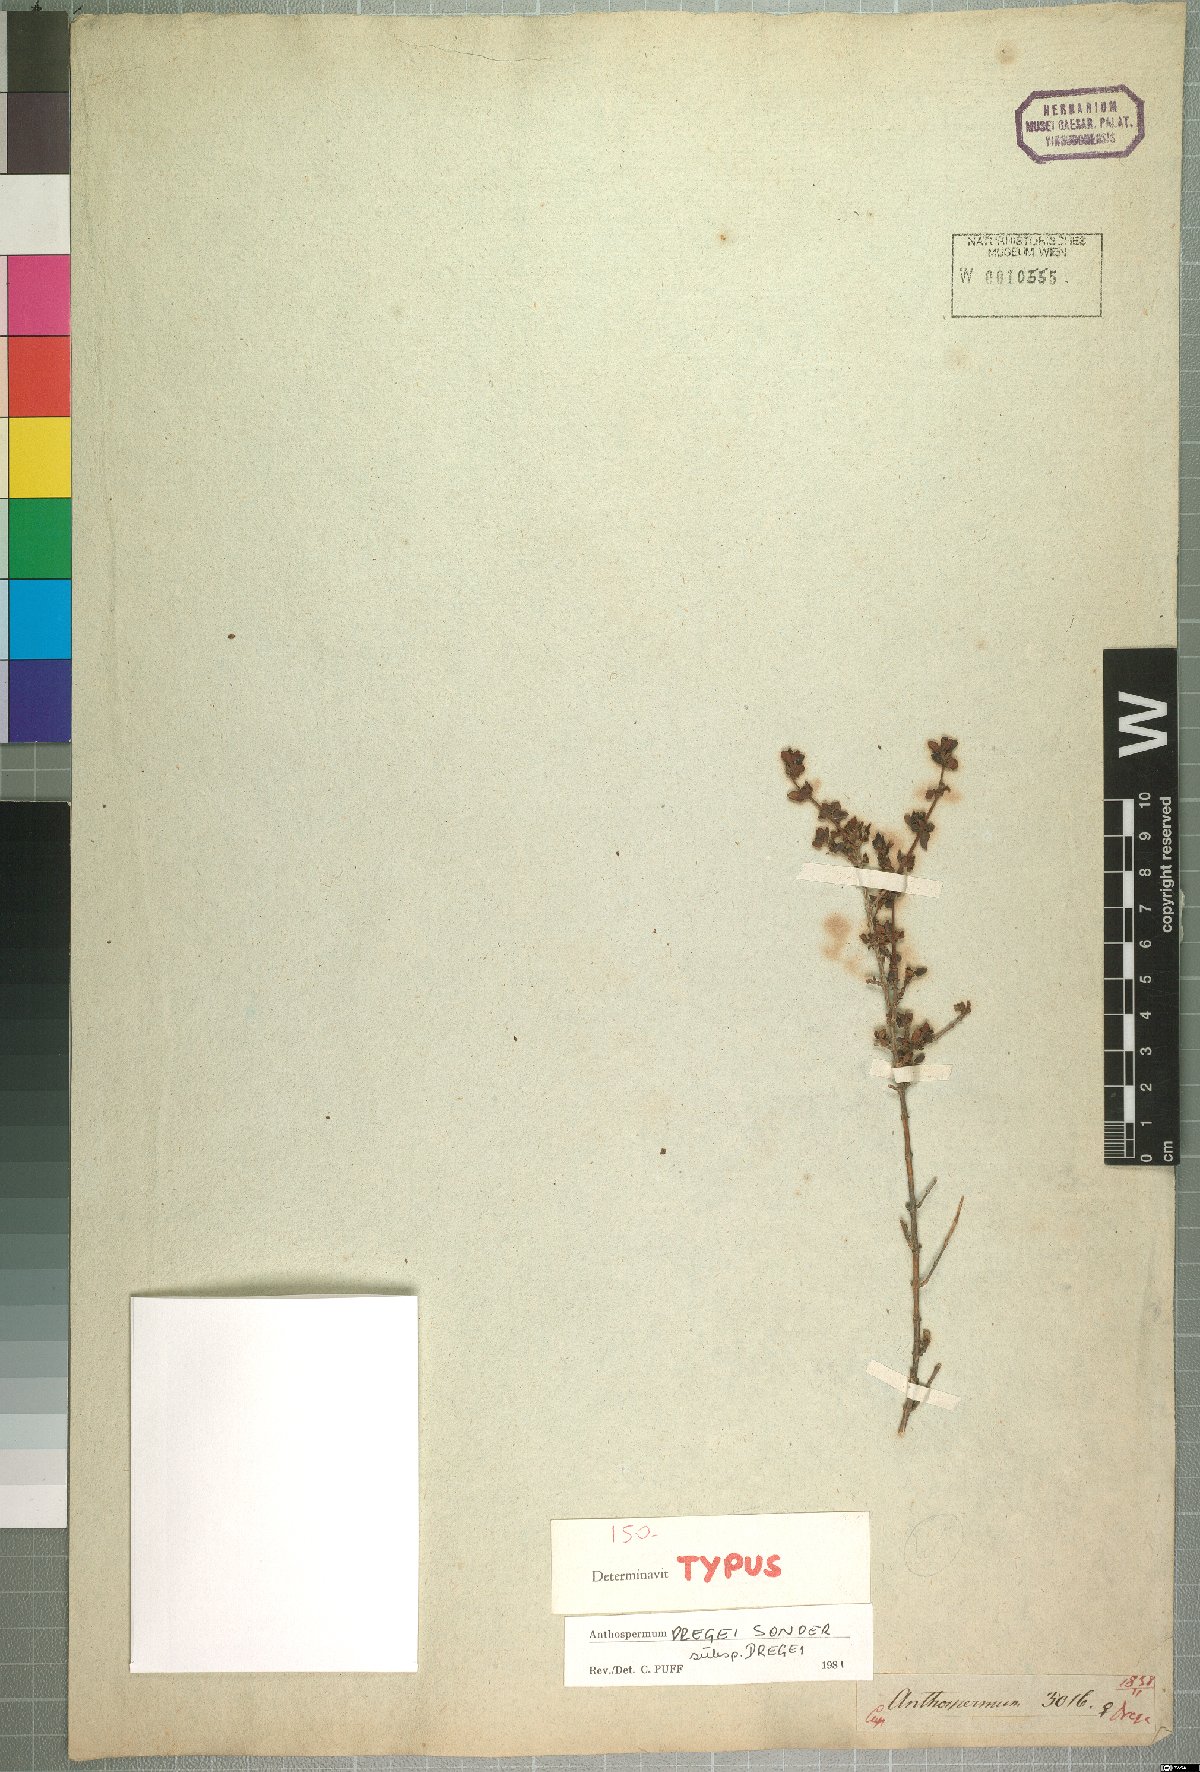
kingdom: Plantae
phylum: Tracheophyta
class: Magnoliopsida
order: Gentianales
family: Rubiaceae
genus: Anthospermum
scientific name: Anthospermum dregei
